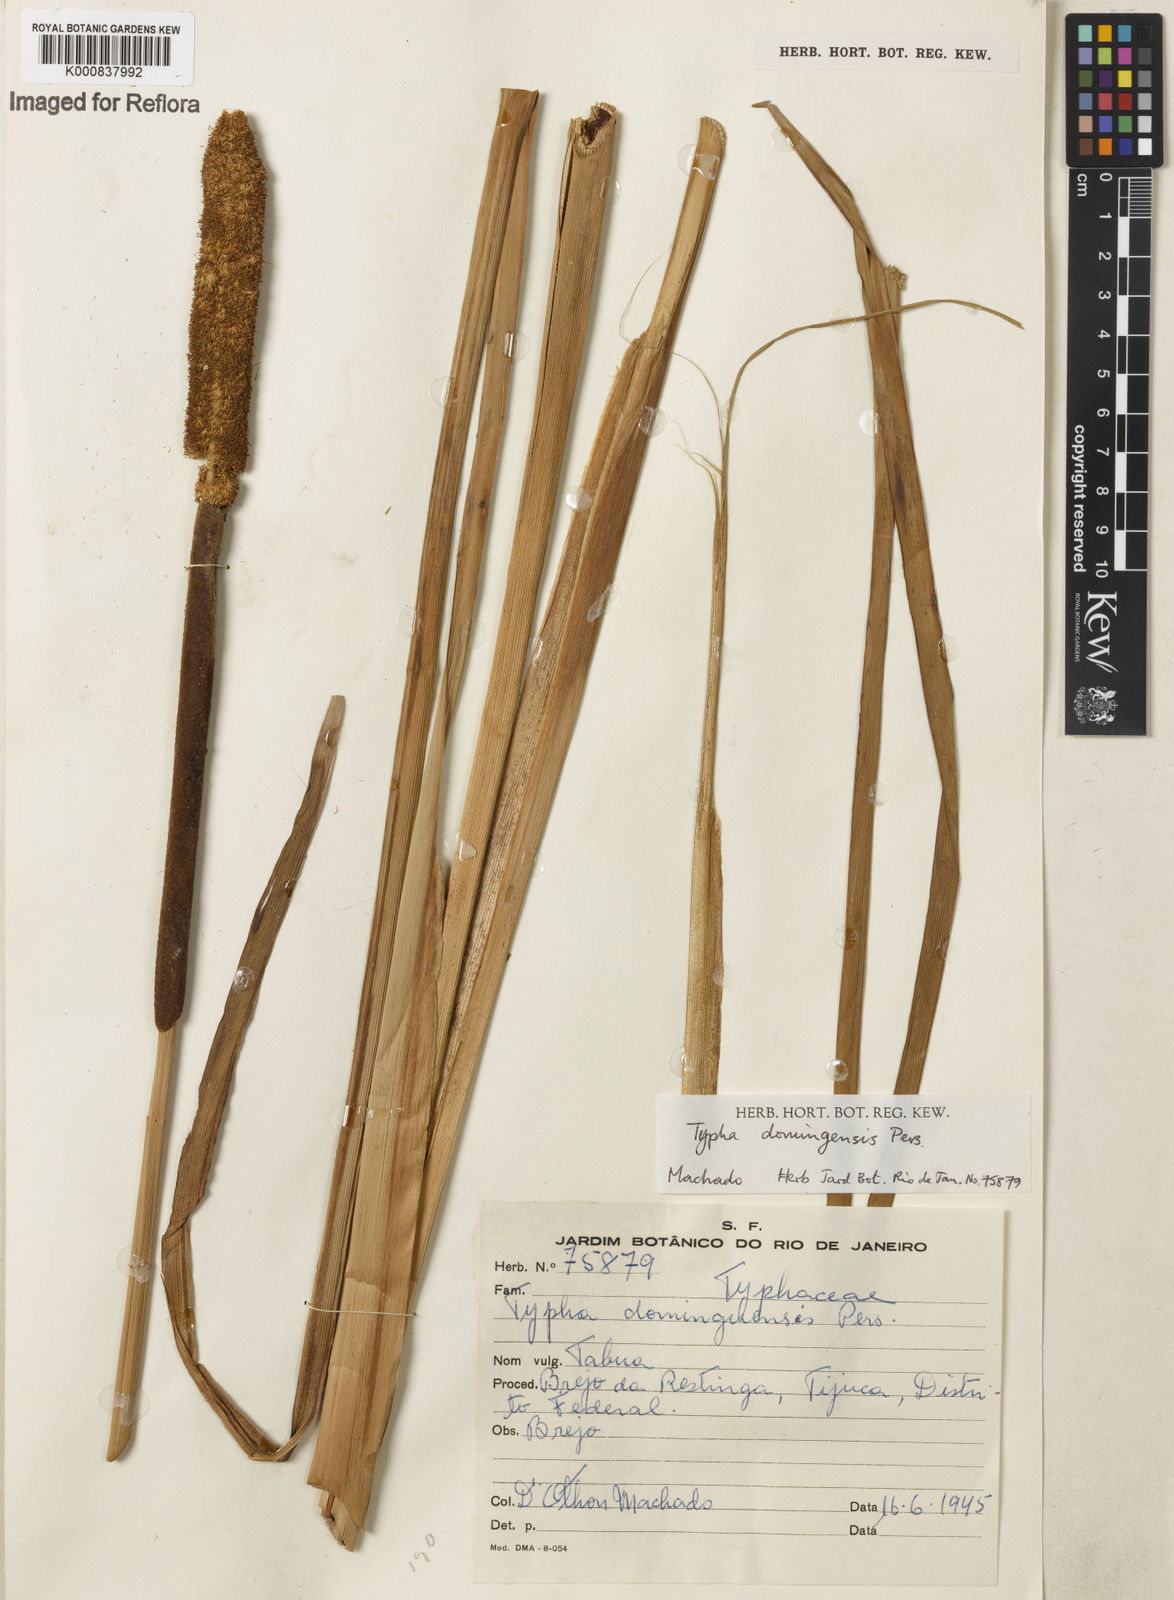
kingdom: Plantae
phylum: Tracheophyta
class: Liliopsida
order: Poales
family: Typhaceae
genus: Typha
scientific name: Typha
